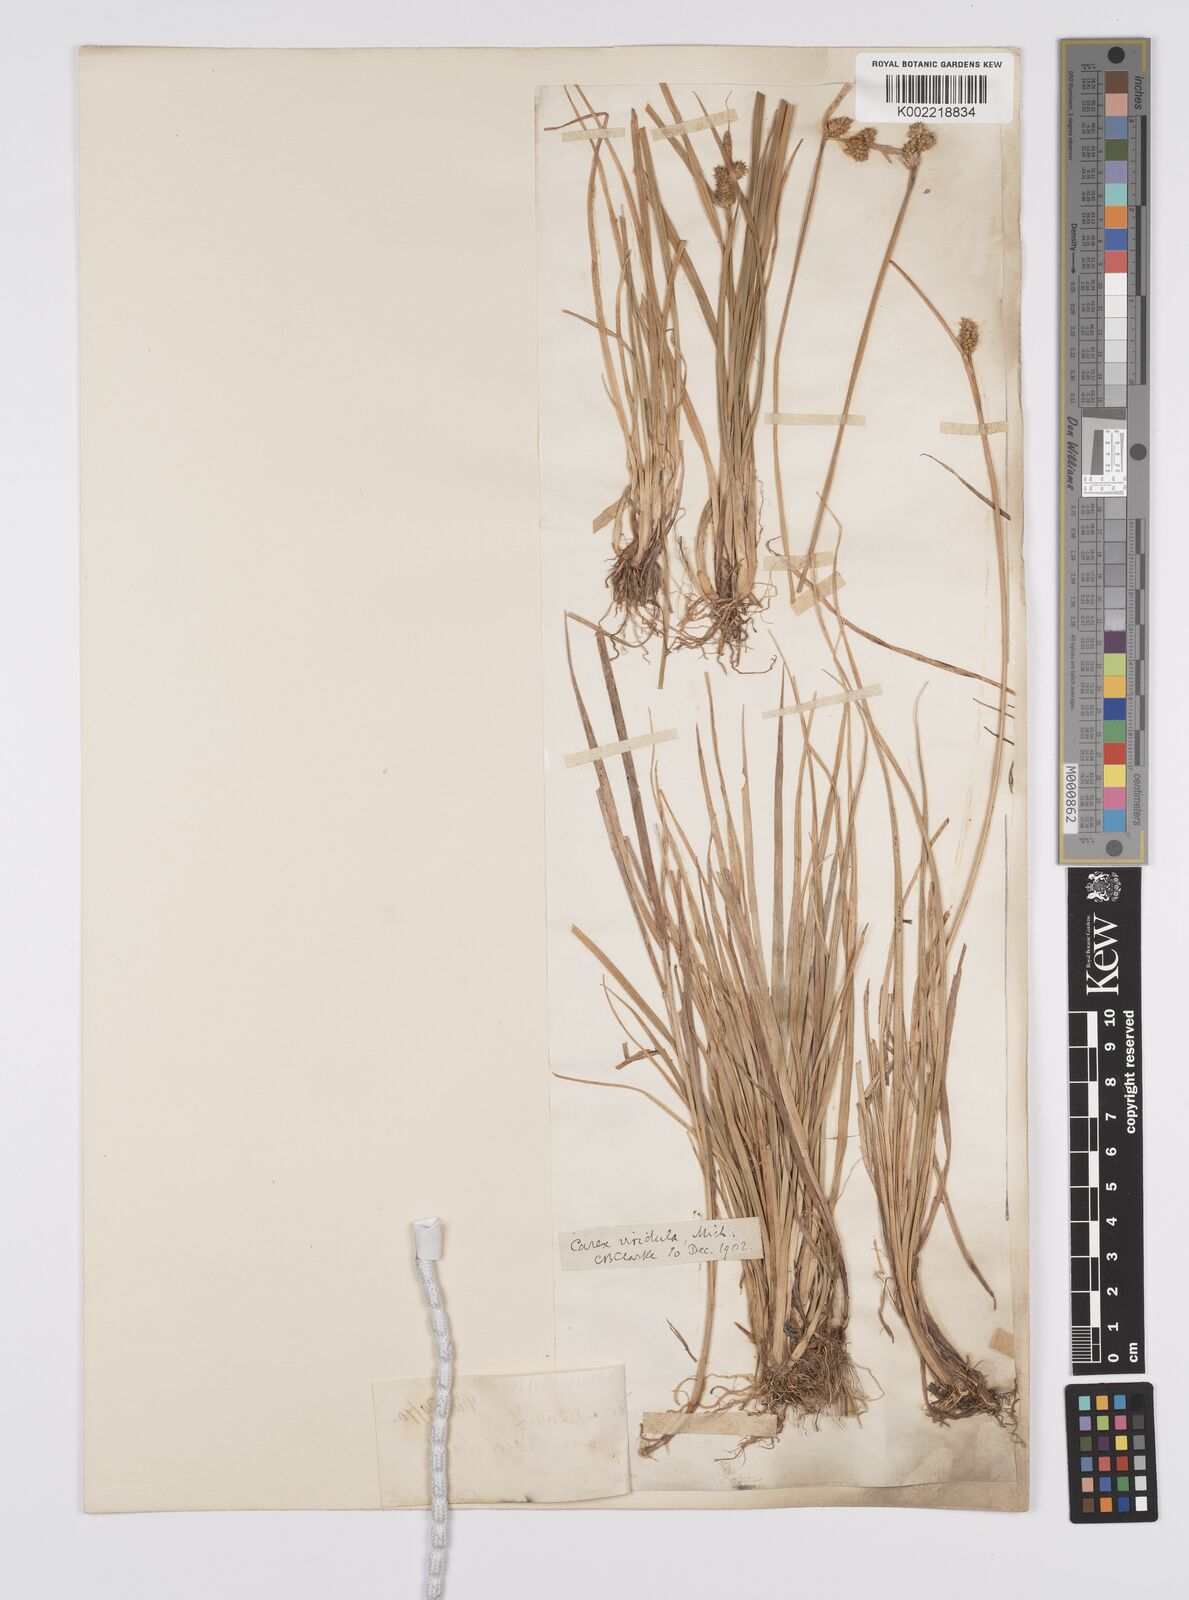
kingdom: Plantae
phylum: Tracheophyta
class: Liliopsida
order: Poales
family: Cyperaceae
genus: Carex
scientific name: Carex oederi
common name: Common & small-fruited yellow-sedge
